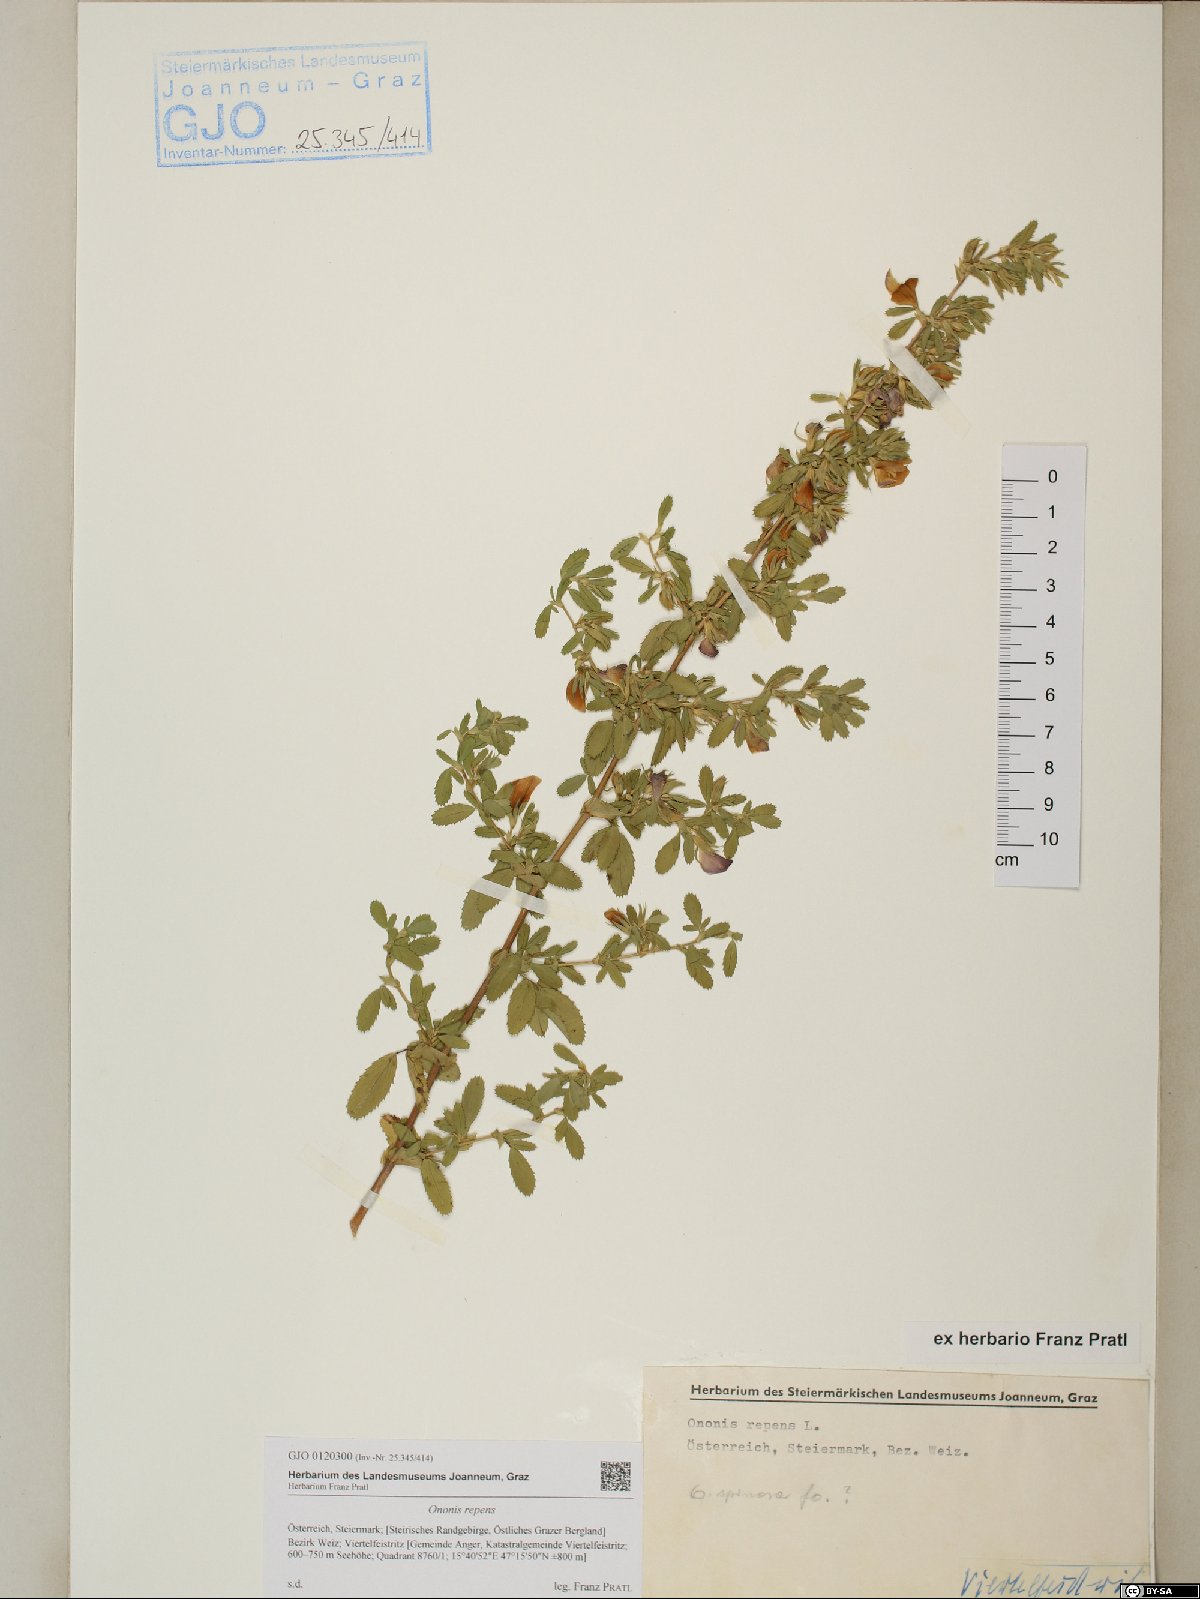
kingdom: Plantae
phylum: Tracheophyta
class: Magnoliopsida
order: Fabales
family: Fabaceae
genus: Ononis
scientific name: Ononis spinosa
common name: Spiny restharrow
